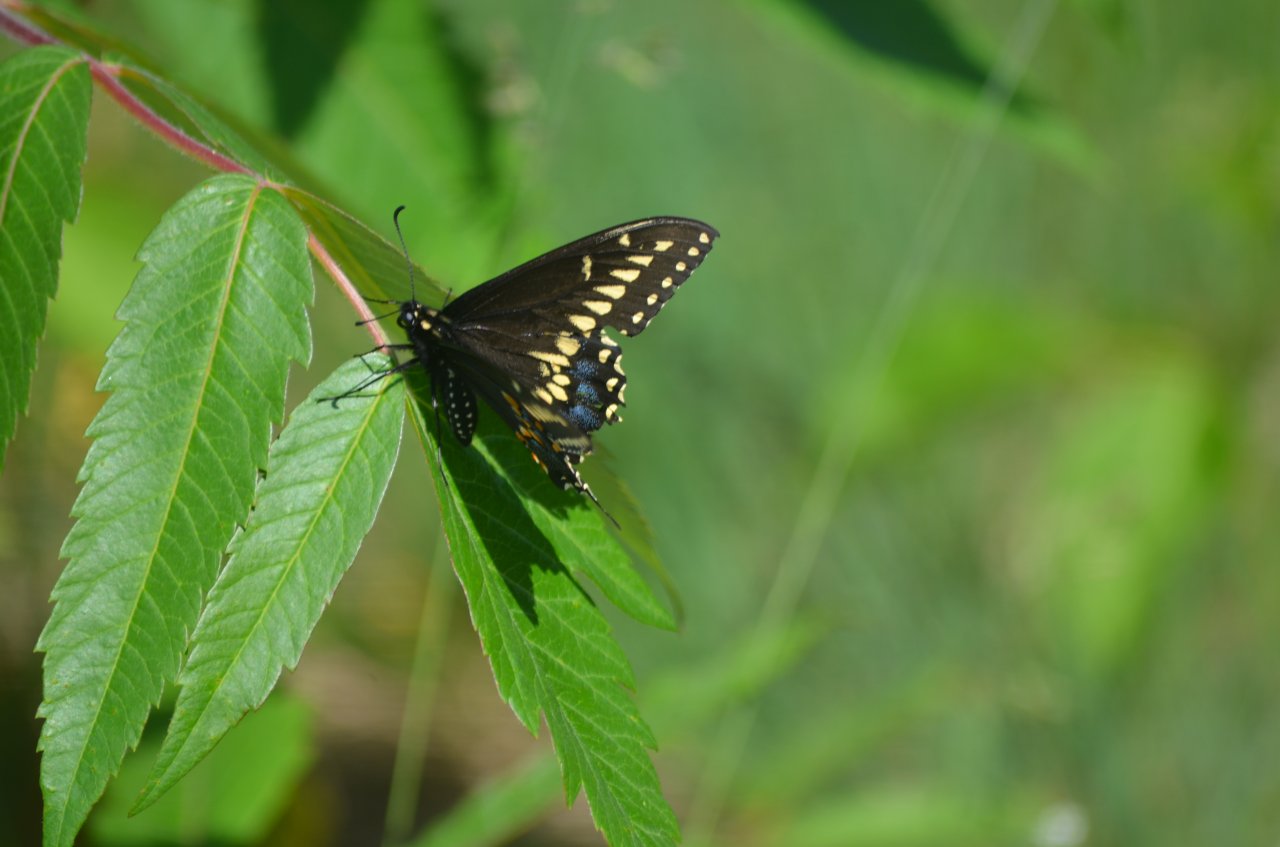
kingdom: Animalia
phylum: Arthropoda
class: Insecta
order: Lepidoptera
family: Papilionidae
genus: Papilio
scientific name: Papilio polyxenes
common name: Black Swallowtail
